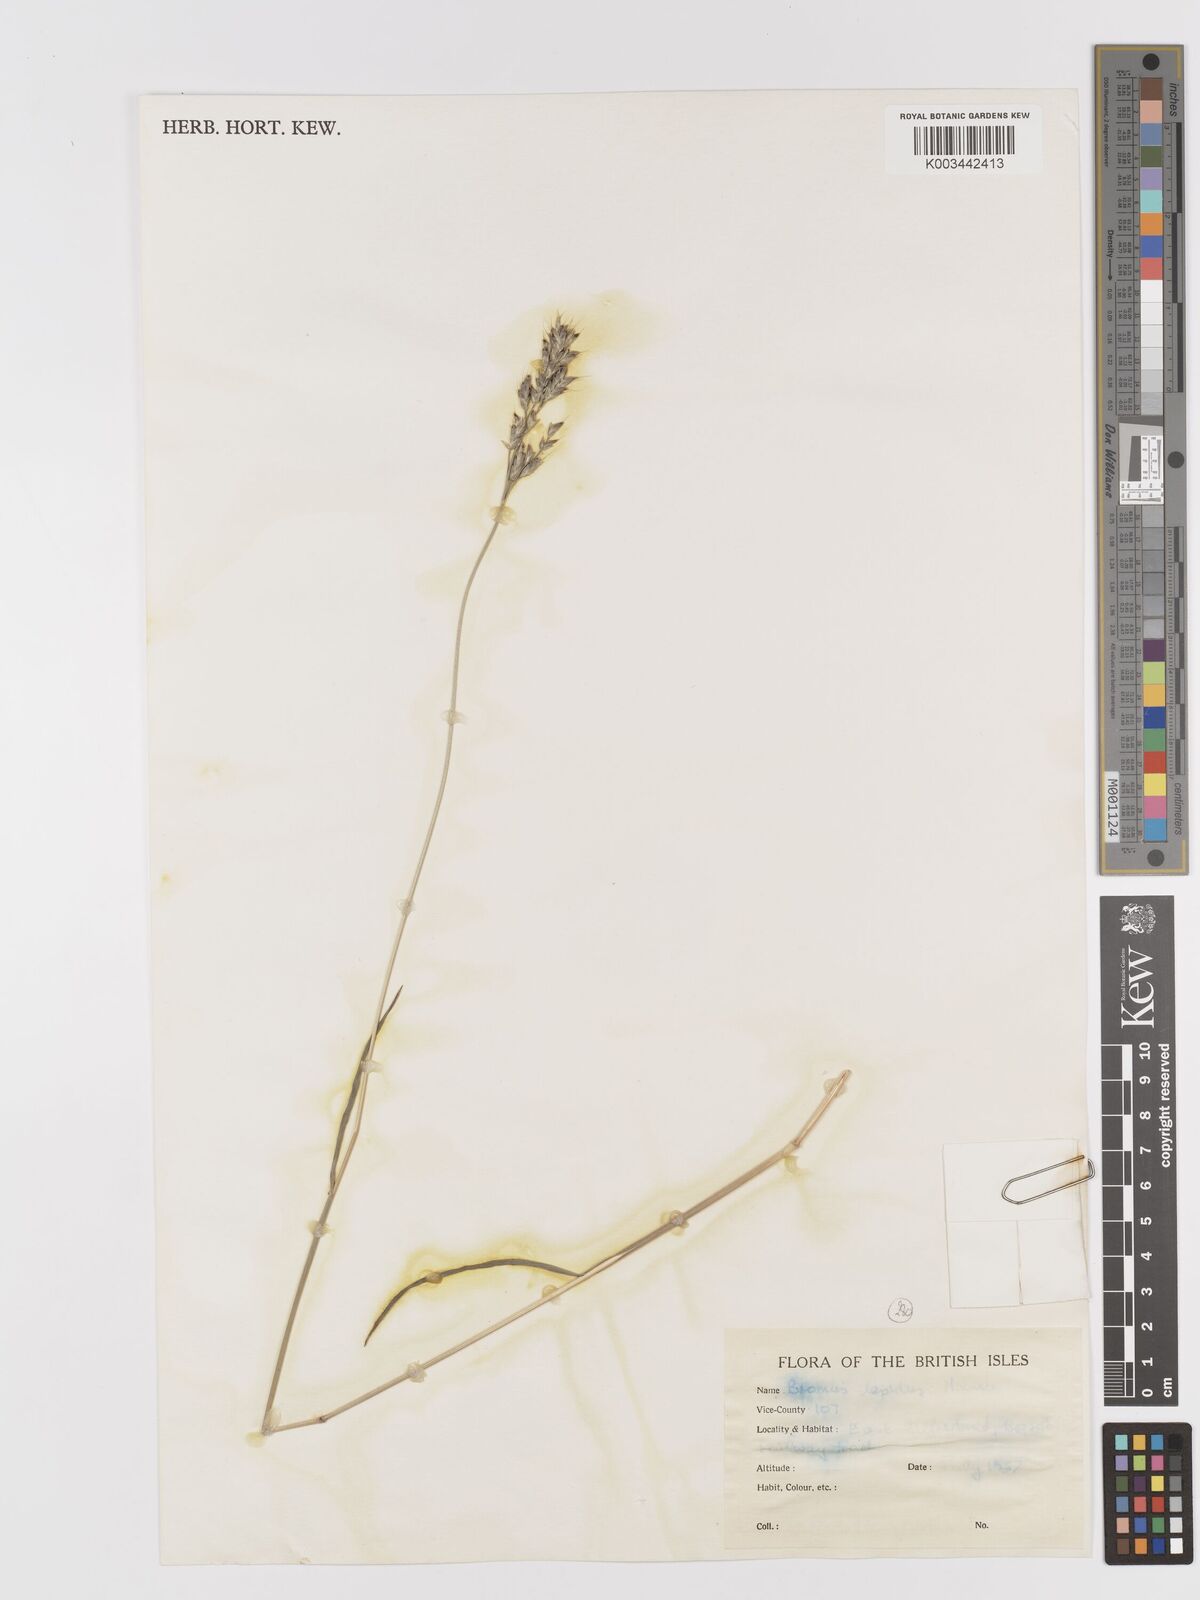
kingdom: Plantae
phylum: Tracheophyta
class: Liliopsida
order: Poales
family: Poaceae
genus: Bromus
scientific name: Bromus lepidus
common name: Slender soft-brome
